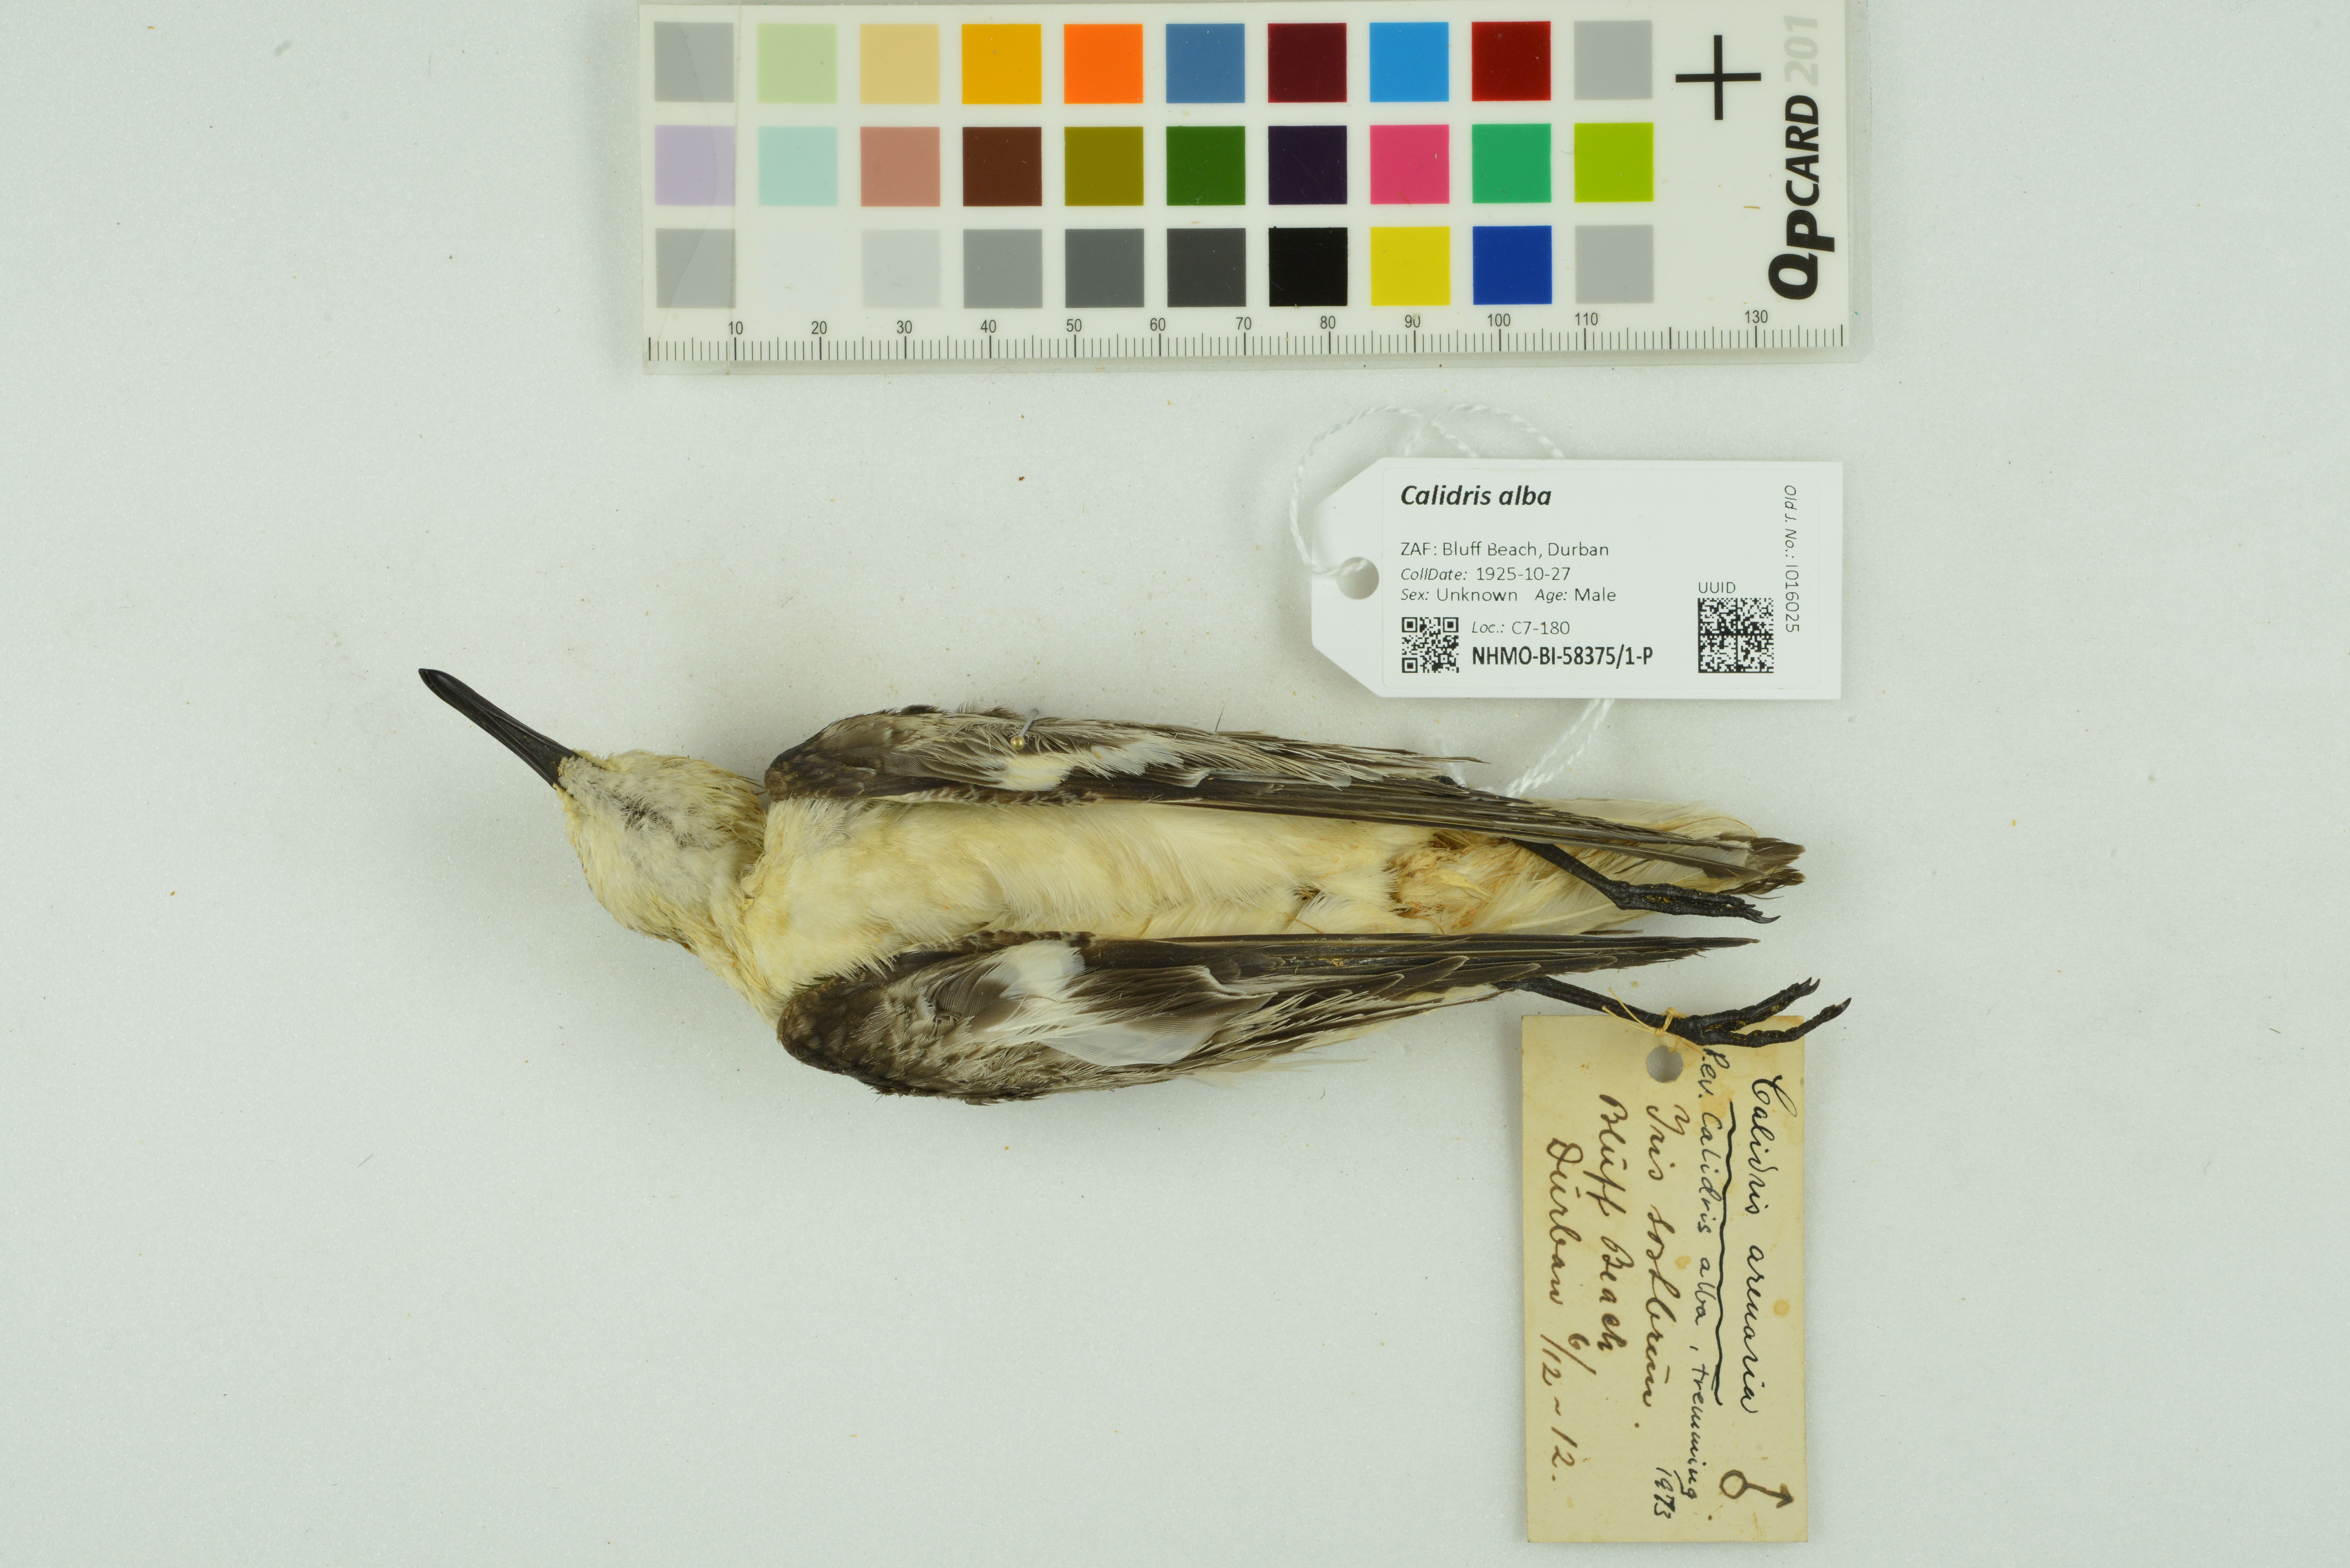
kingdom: Animalia
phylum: Chordata
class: Aves
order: Charadriiformes
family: Scolopacidae
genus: Calidris
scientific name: Calidris alba
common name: Sanderling
